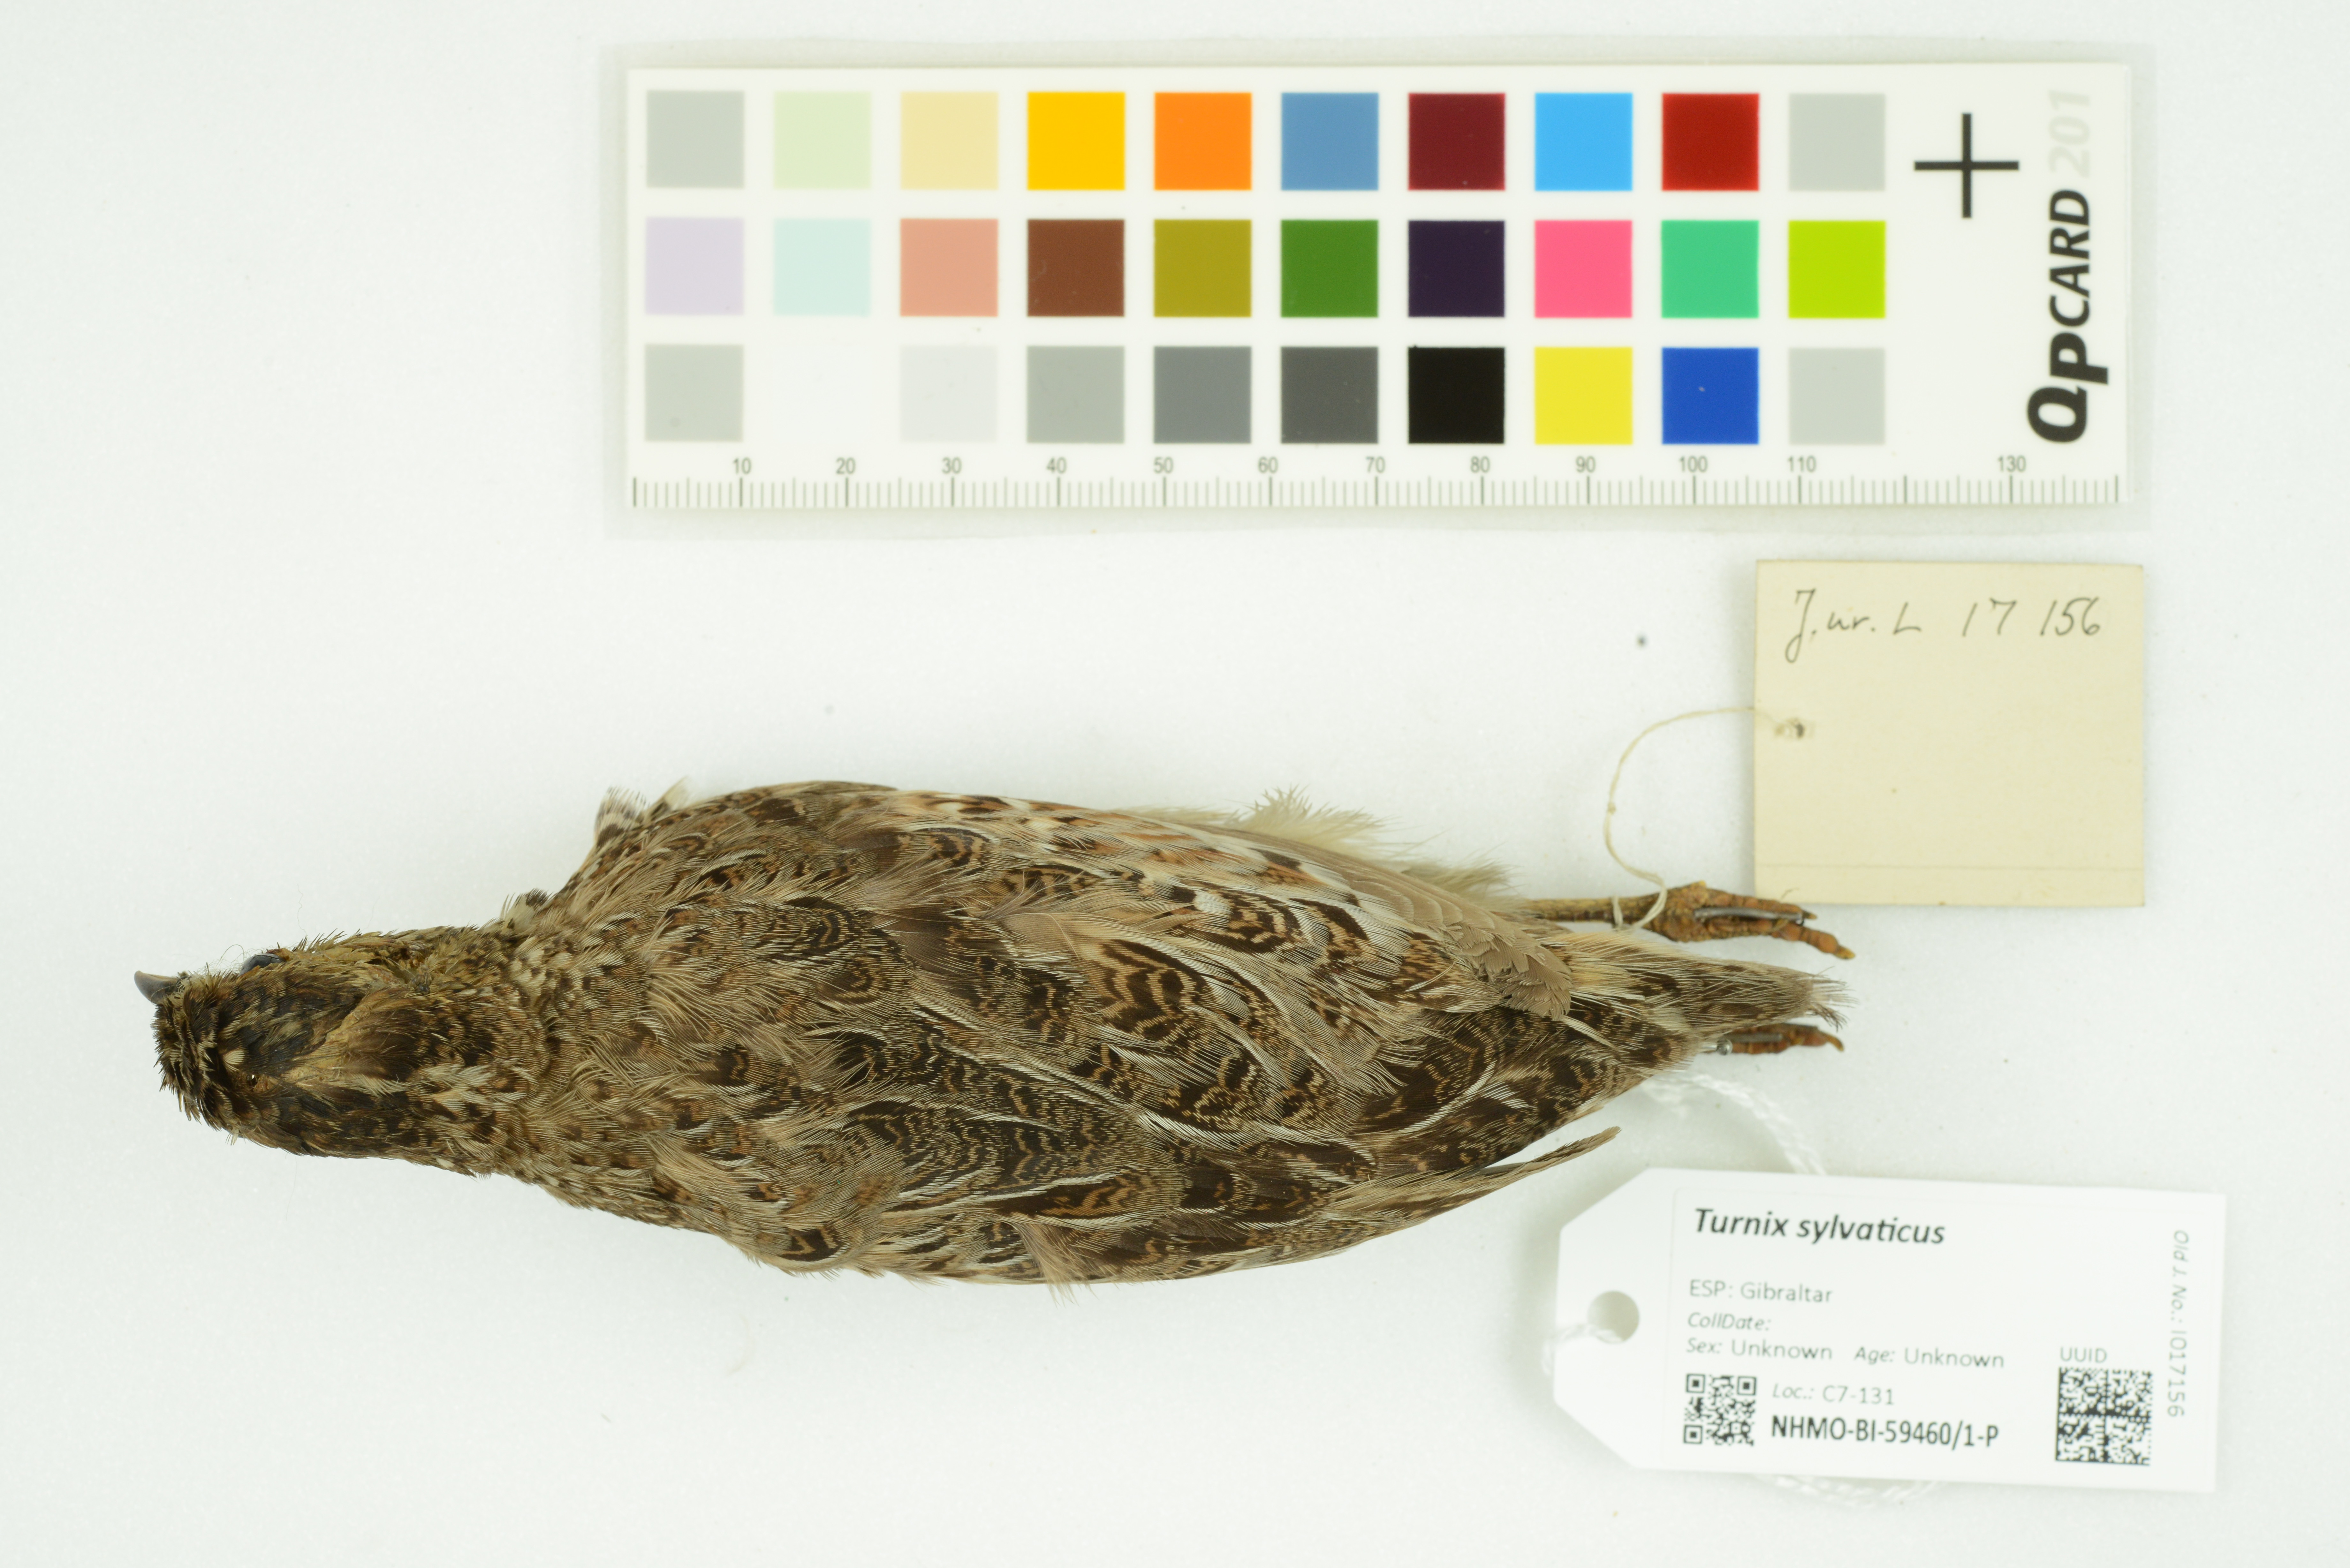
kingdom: Animalia
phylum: Chordata
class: Aves
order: Charadriiformes
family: Turnicidae
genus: Turnix
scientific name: Turnix sylvaticus
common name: Common buttonquail
